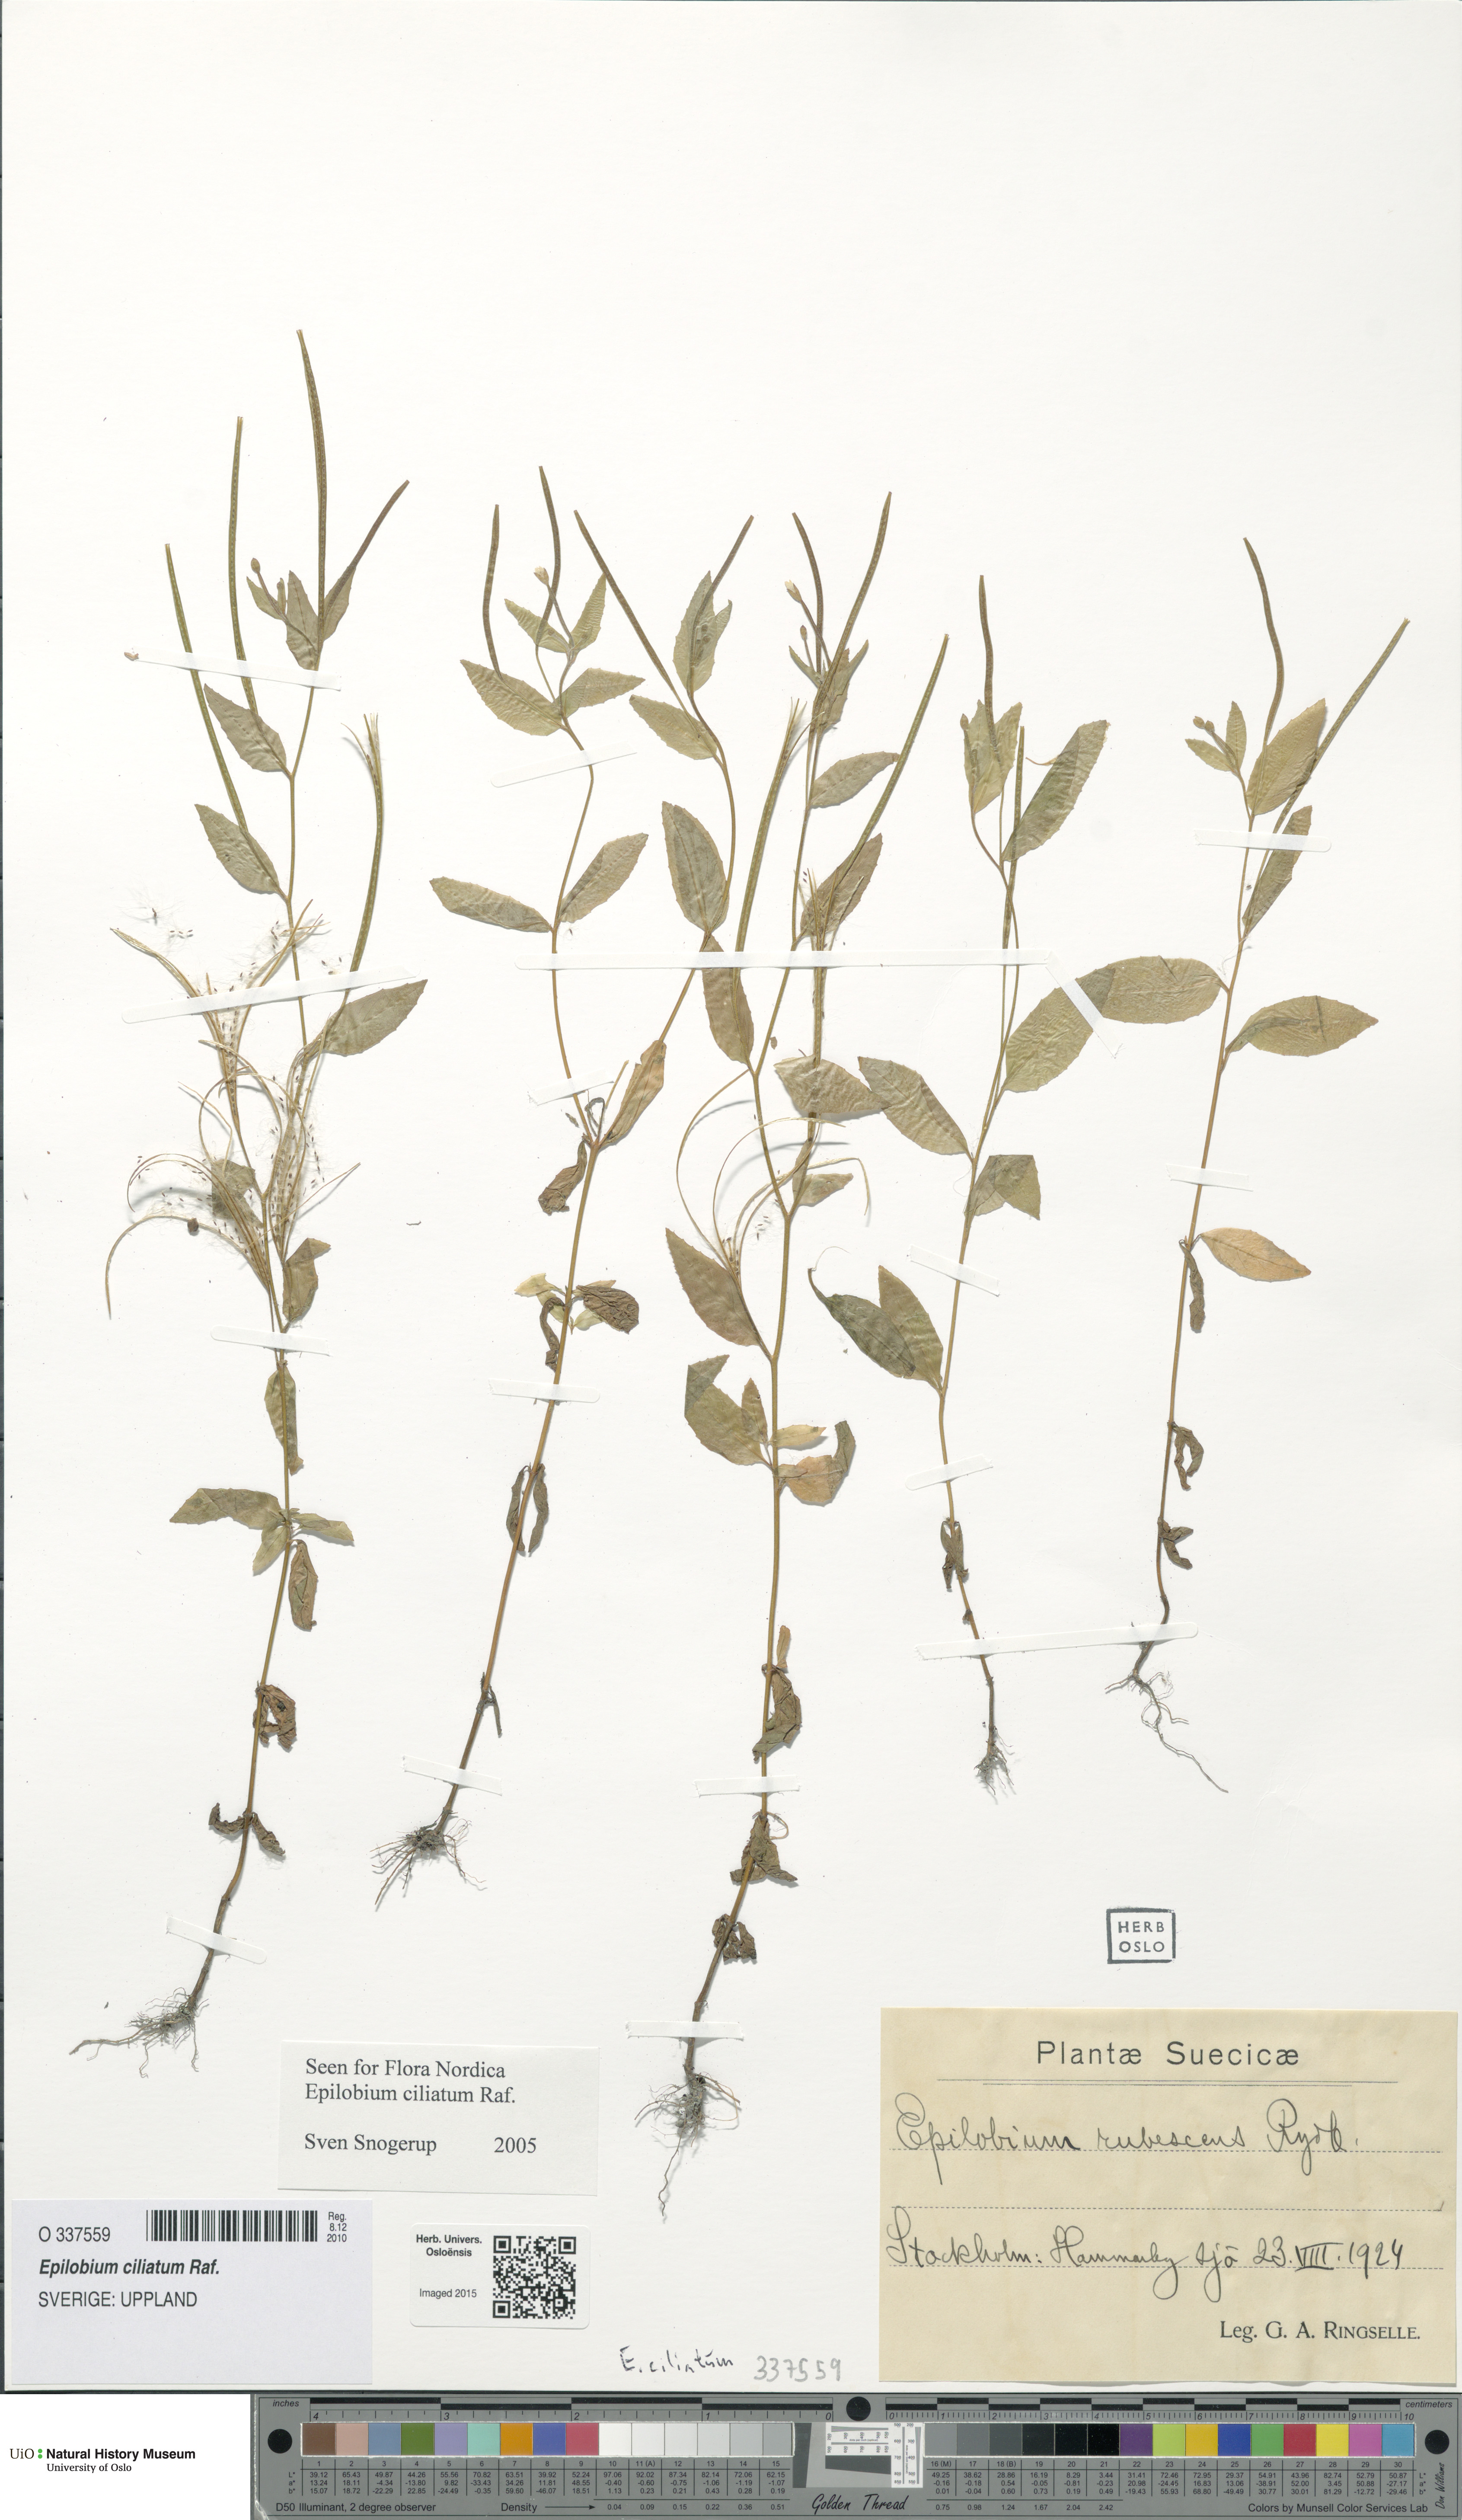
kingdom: Plantae
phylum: Tracheophyta
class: Magnoliopsida
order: Myrtales
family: Onagraceae
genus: Epilobium
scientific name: Epilobium ciliatum
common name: American willowherb
